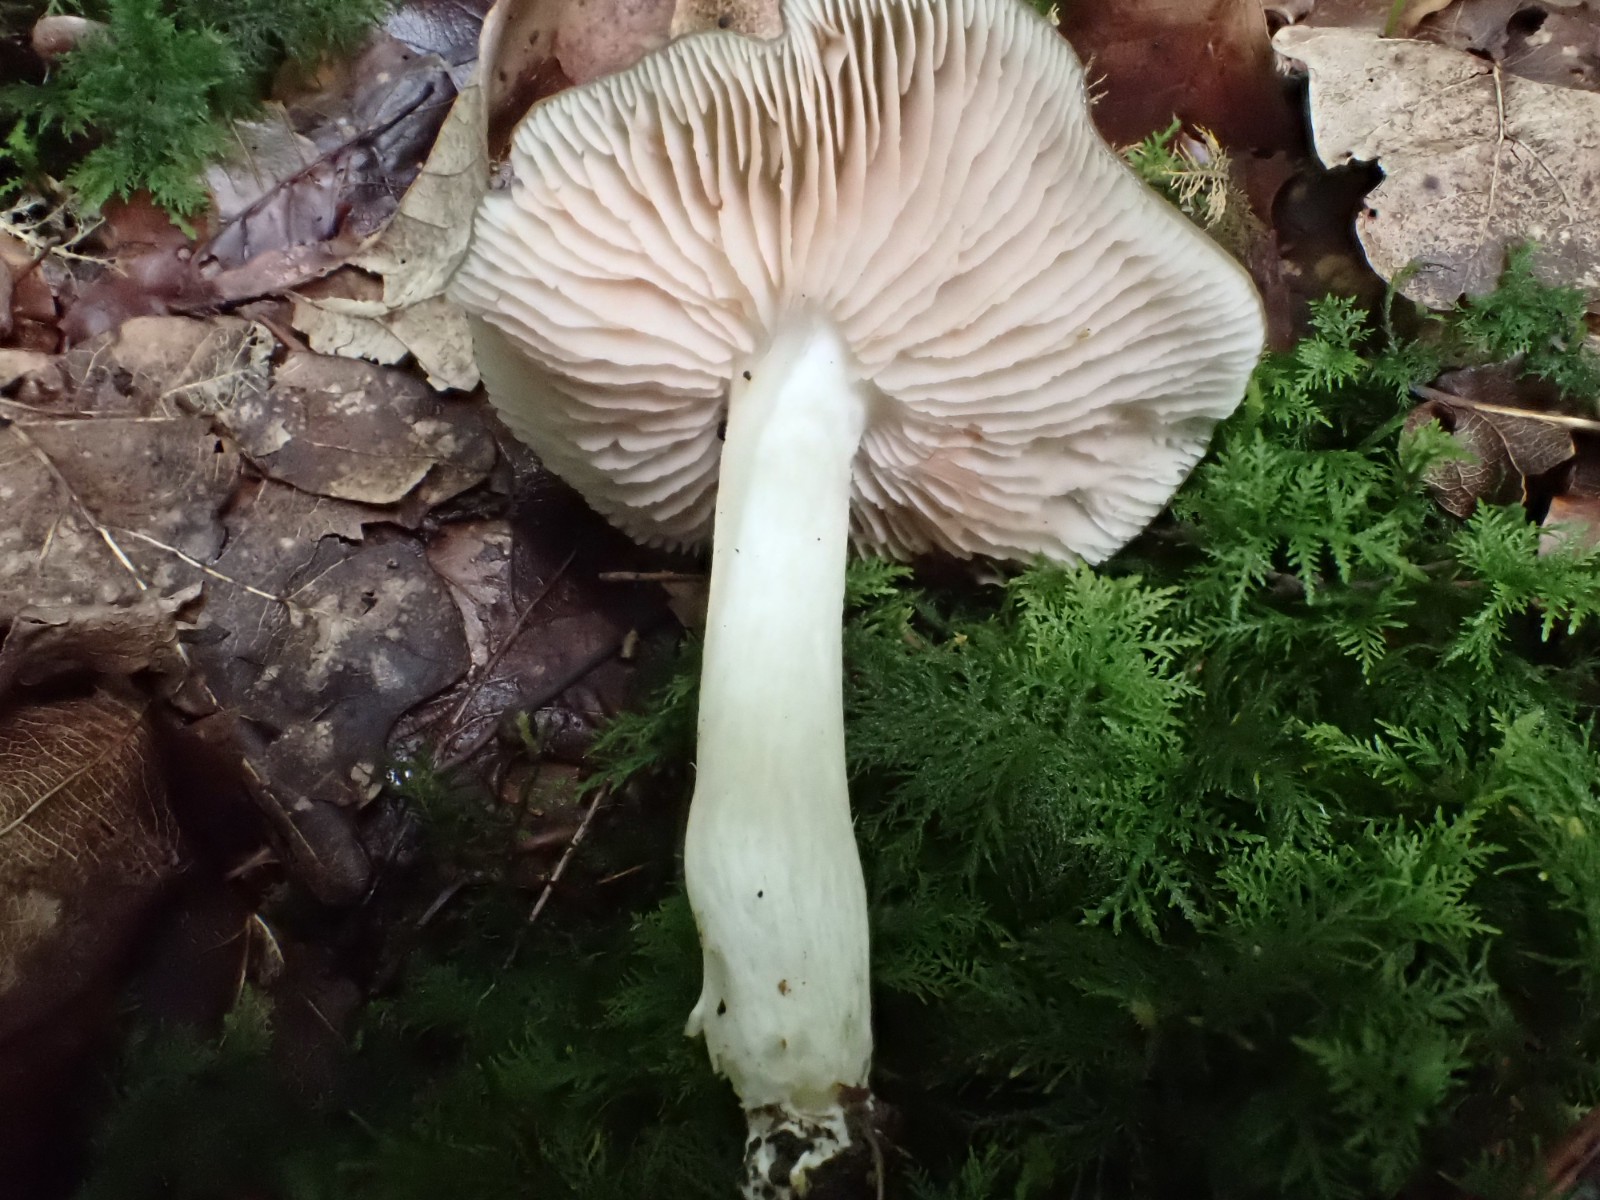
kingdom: Fungi
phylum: Basidiomycota
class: Agaricomycetes
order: Agaricales
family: Entolomataceae
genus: Entoloma
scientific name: Entoloma
